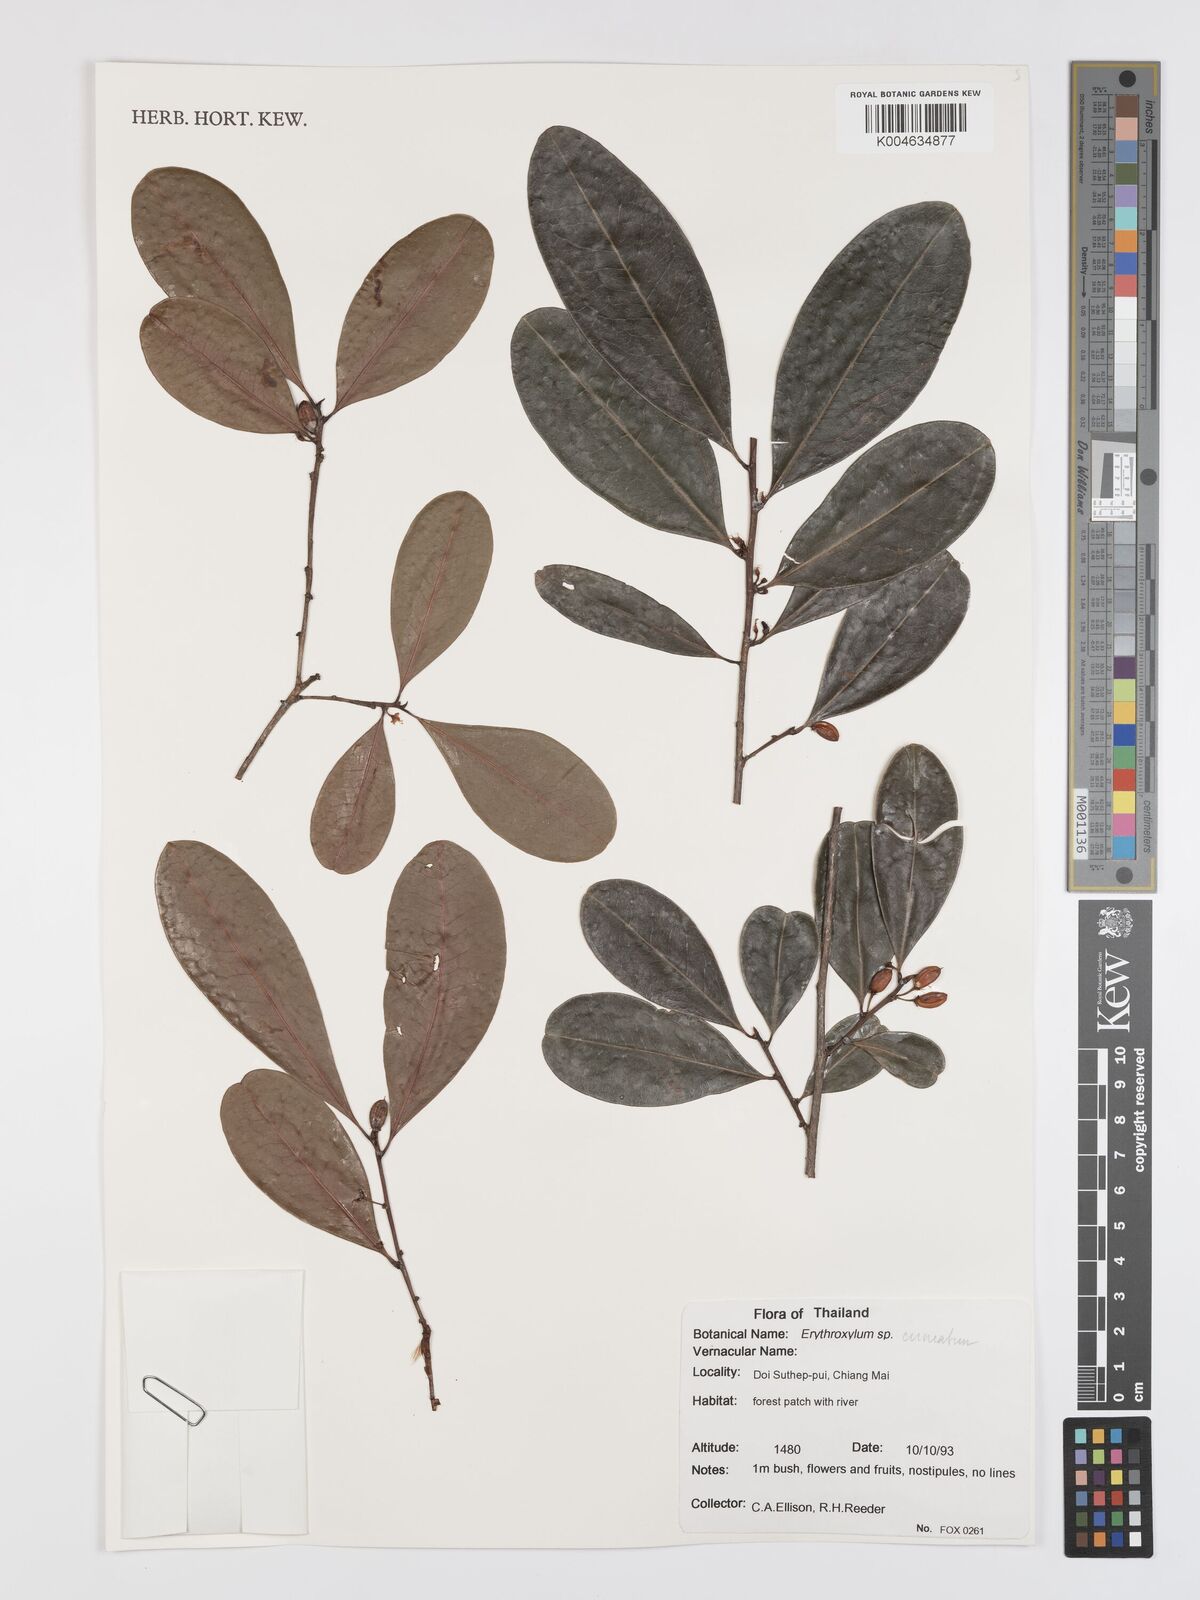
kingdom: Plantae
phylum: Tracheophyta
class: Magnoliopsida
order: Malpighiales
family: Erythroxylaceae
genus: Erythroxylum
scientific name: Erythroxylum
